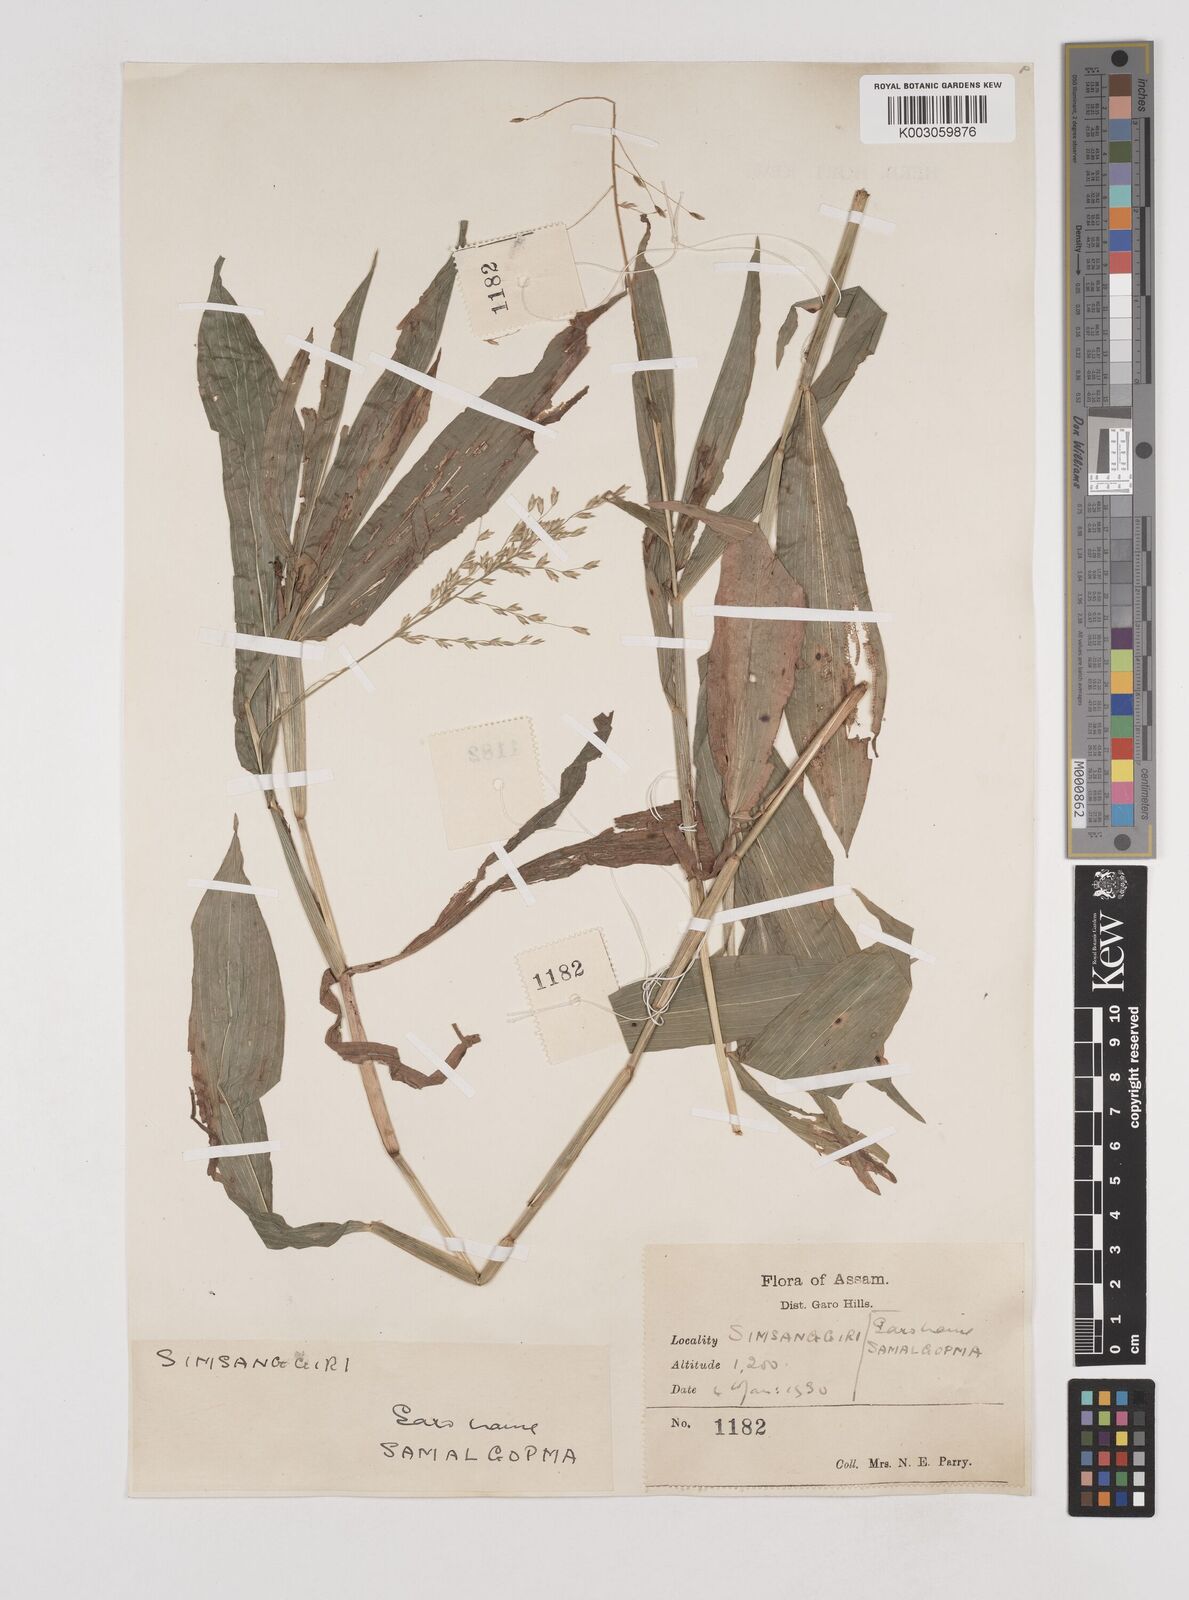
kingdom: Plantae
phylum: Tracheophyta
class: Liliopsida
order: Poales
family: Poaceae
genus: Centotheca
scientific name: Centotheca lappacea
